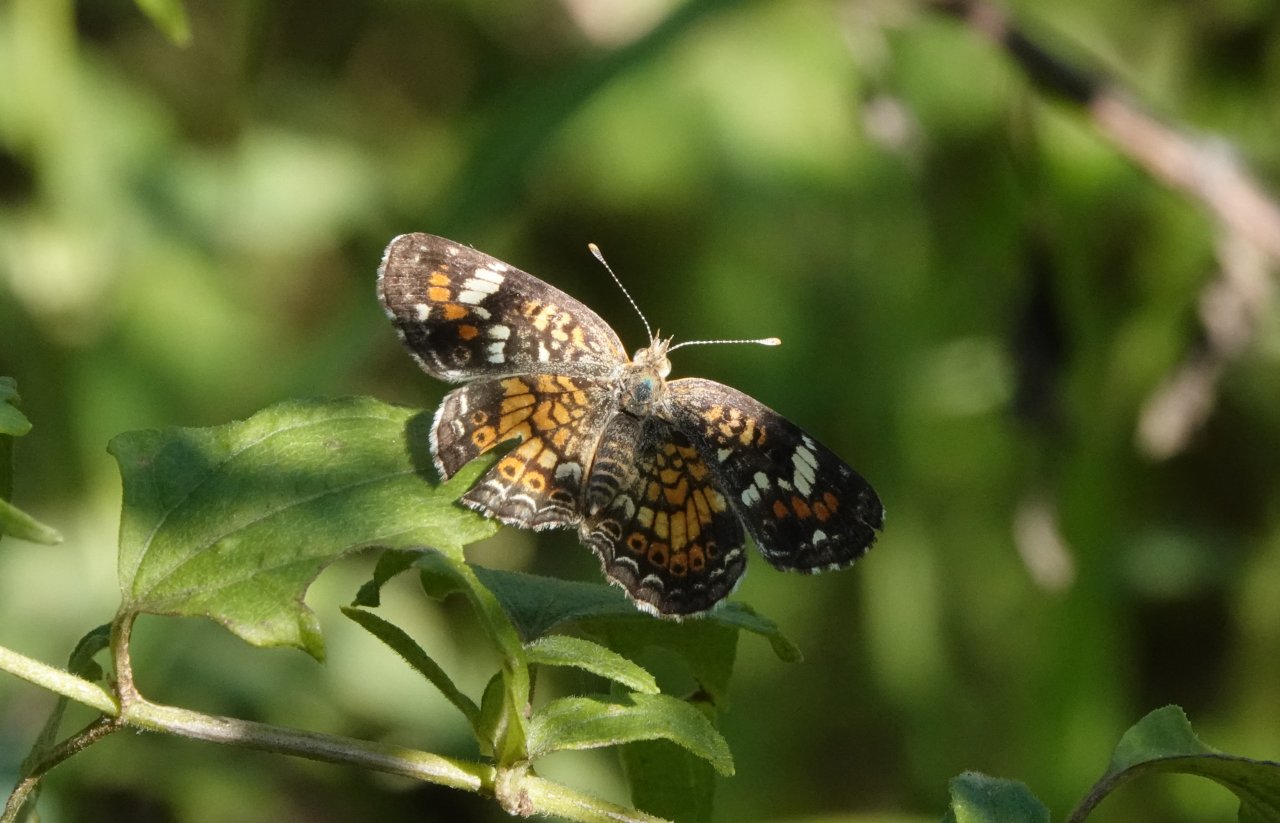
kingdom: Animalia
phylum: Arthropoda
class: Insecta
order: Lepidoptera
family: Nymphalidae
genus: Phyciodes
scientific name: Phyciodes phaon
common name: Phaon Crescent
